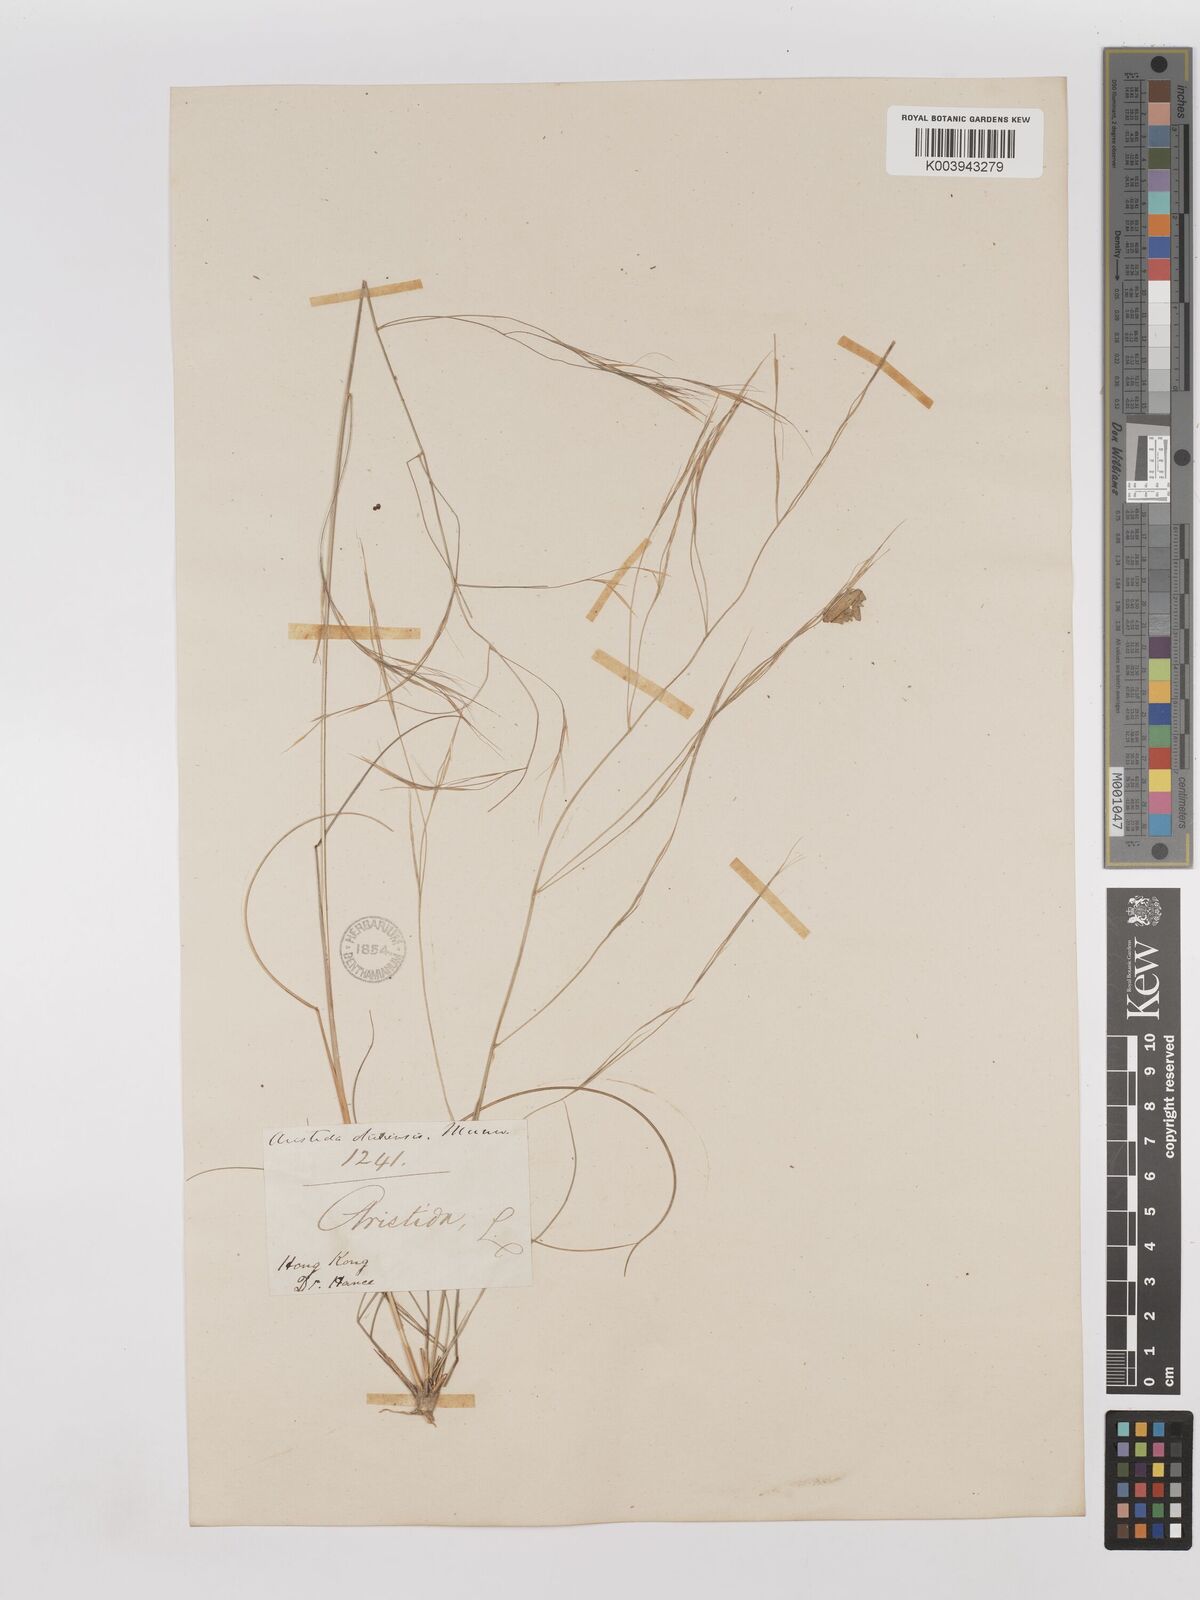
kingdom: Plantae
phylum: Tracheophyta
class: Liliopsida
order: Poales
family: Poaceae
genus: Aristida
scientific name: Aristida chinensis
